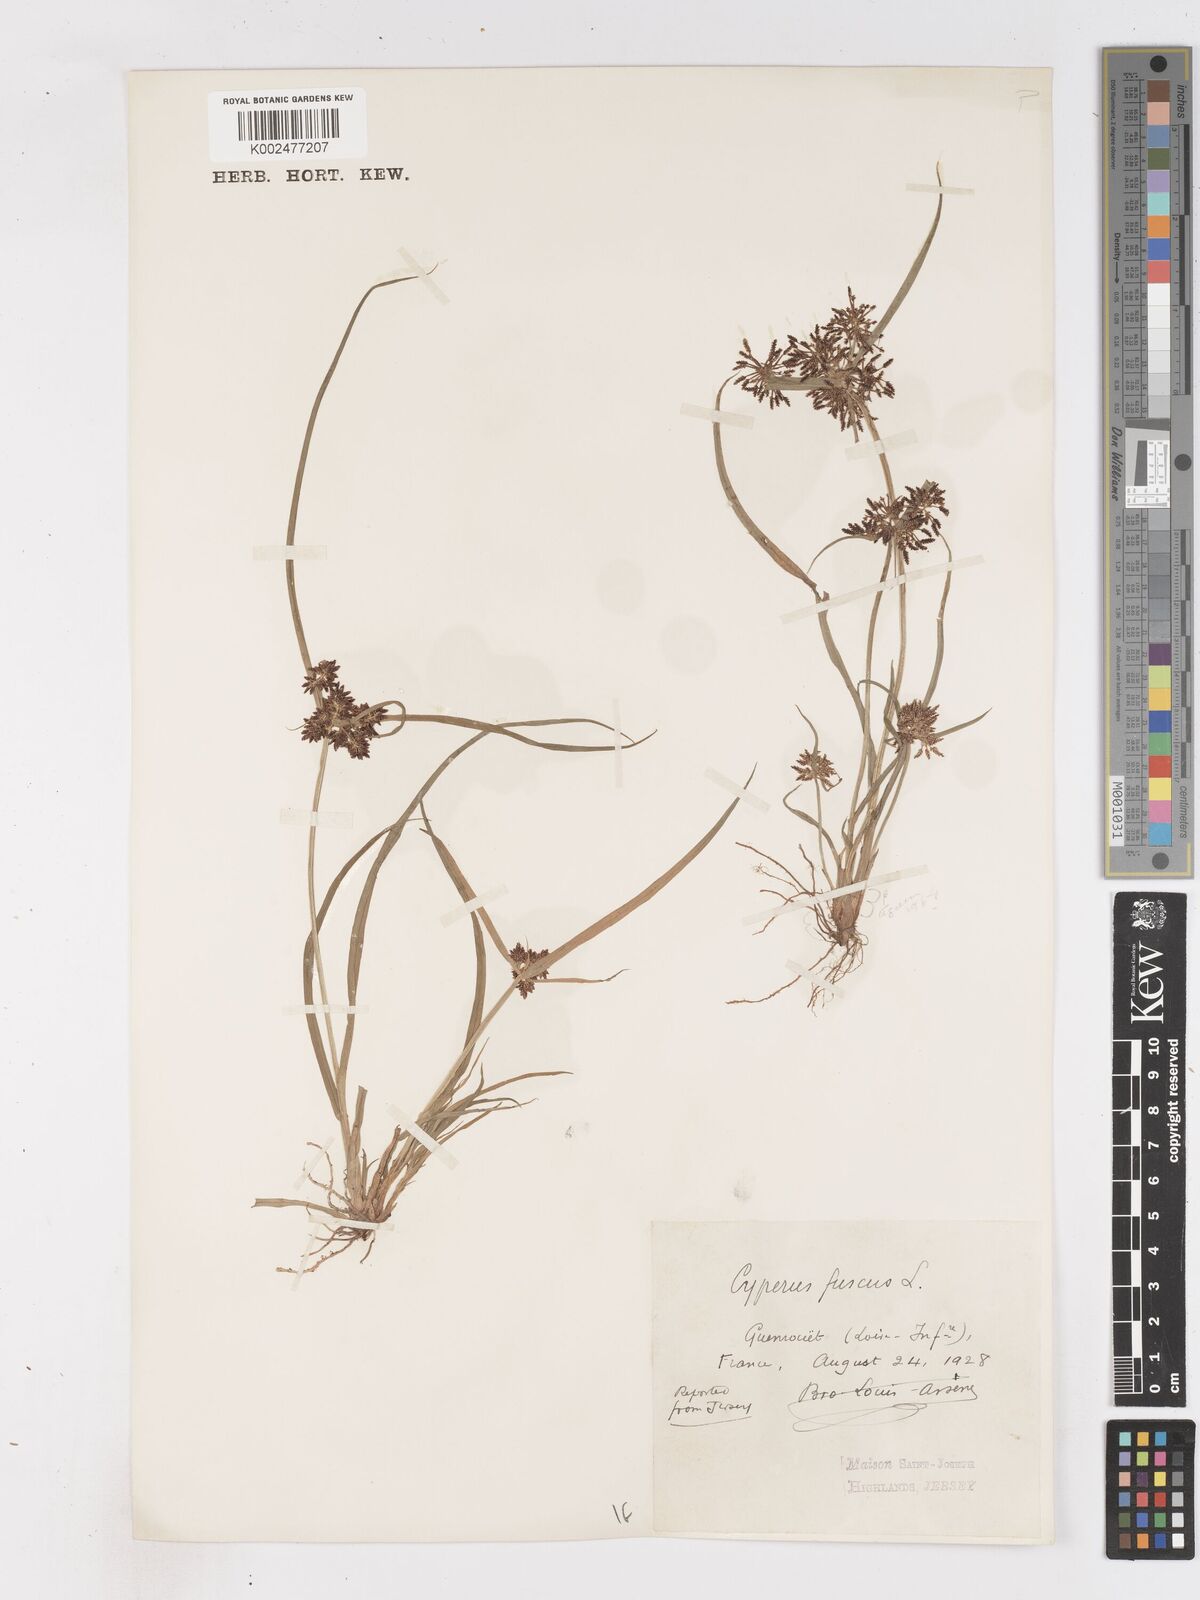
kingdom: Plantae
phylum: Tracheophyta
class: Liliopsida
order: Poales
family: Cyperaceae
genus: Cyperus
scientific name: Cyperus fuscus
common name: Brown galingale
